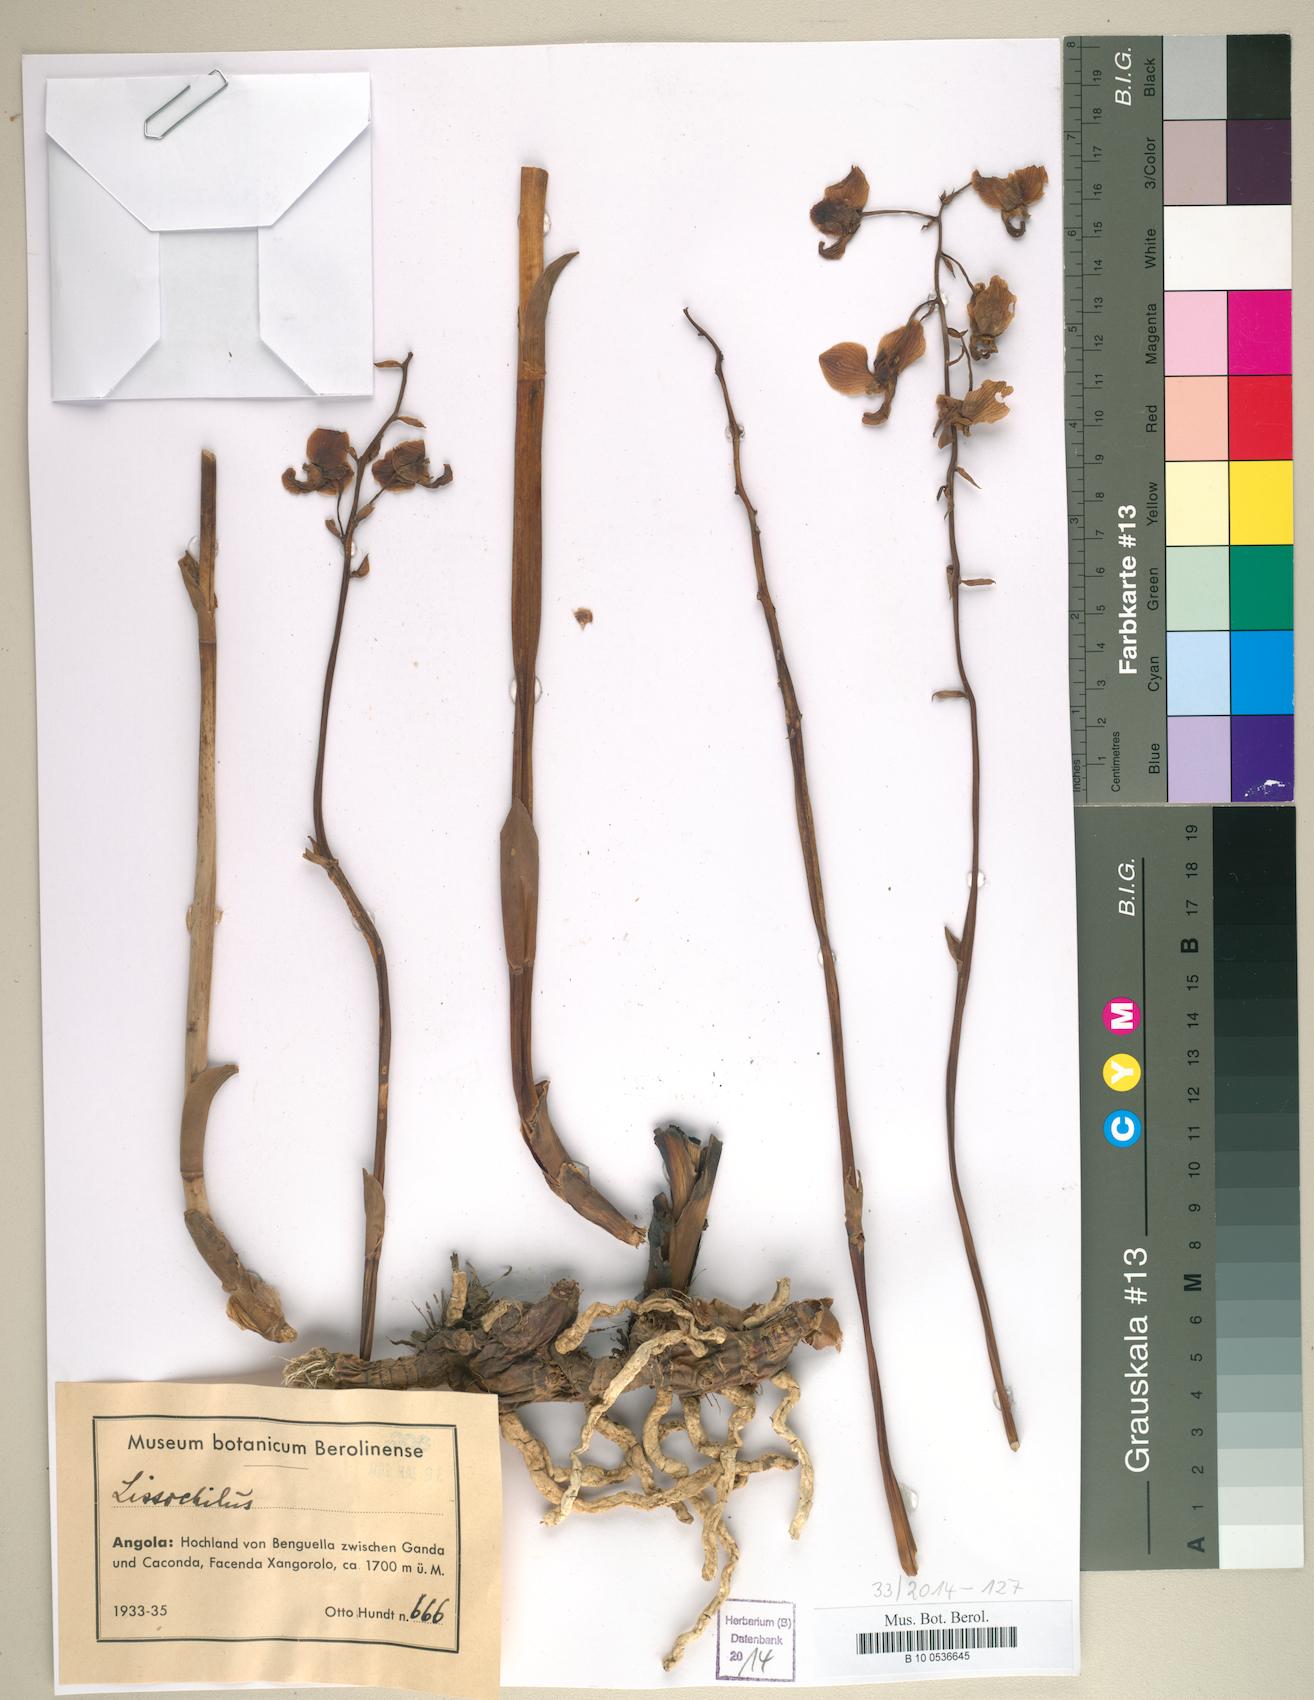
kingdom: Animalia
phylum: Mollusca
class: Gastropoda
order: Cycloneritida
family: Neritidae
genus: Lissochilus
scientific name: Lissochilus
